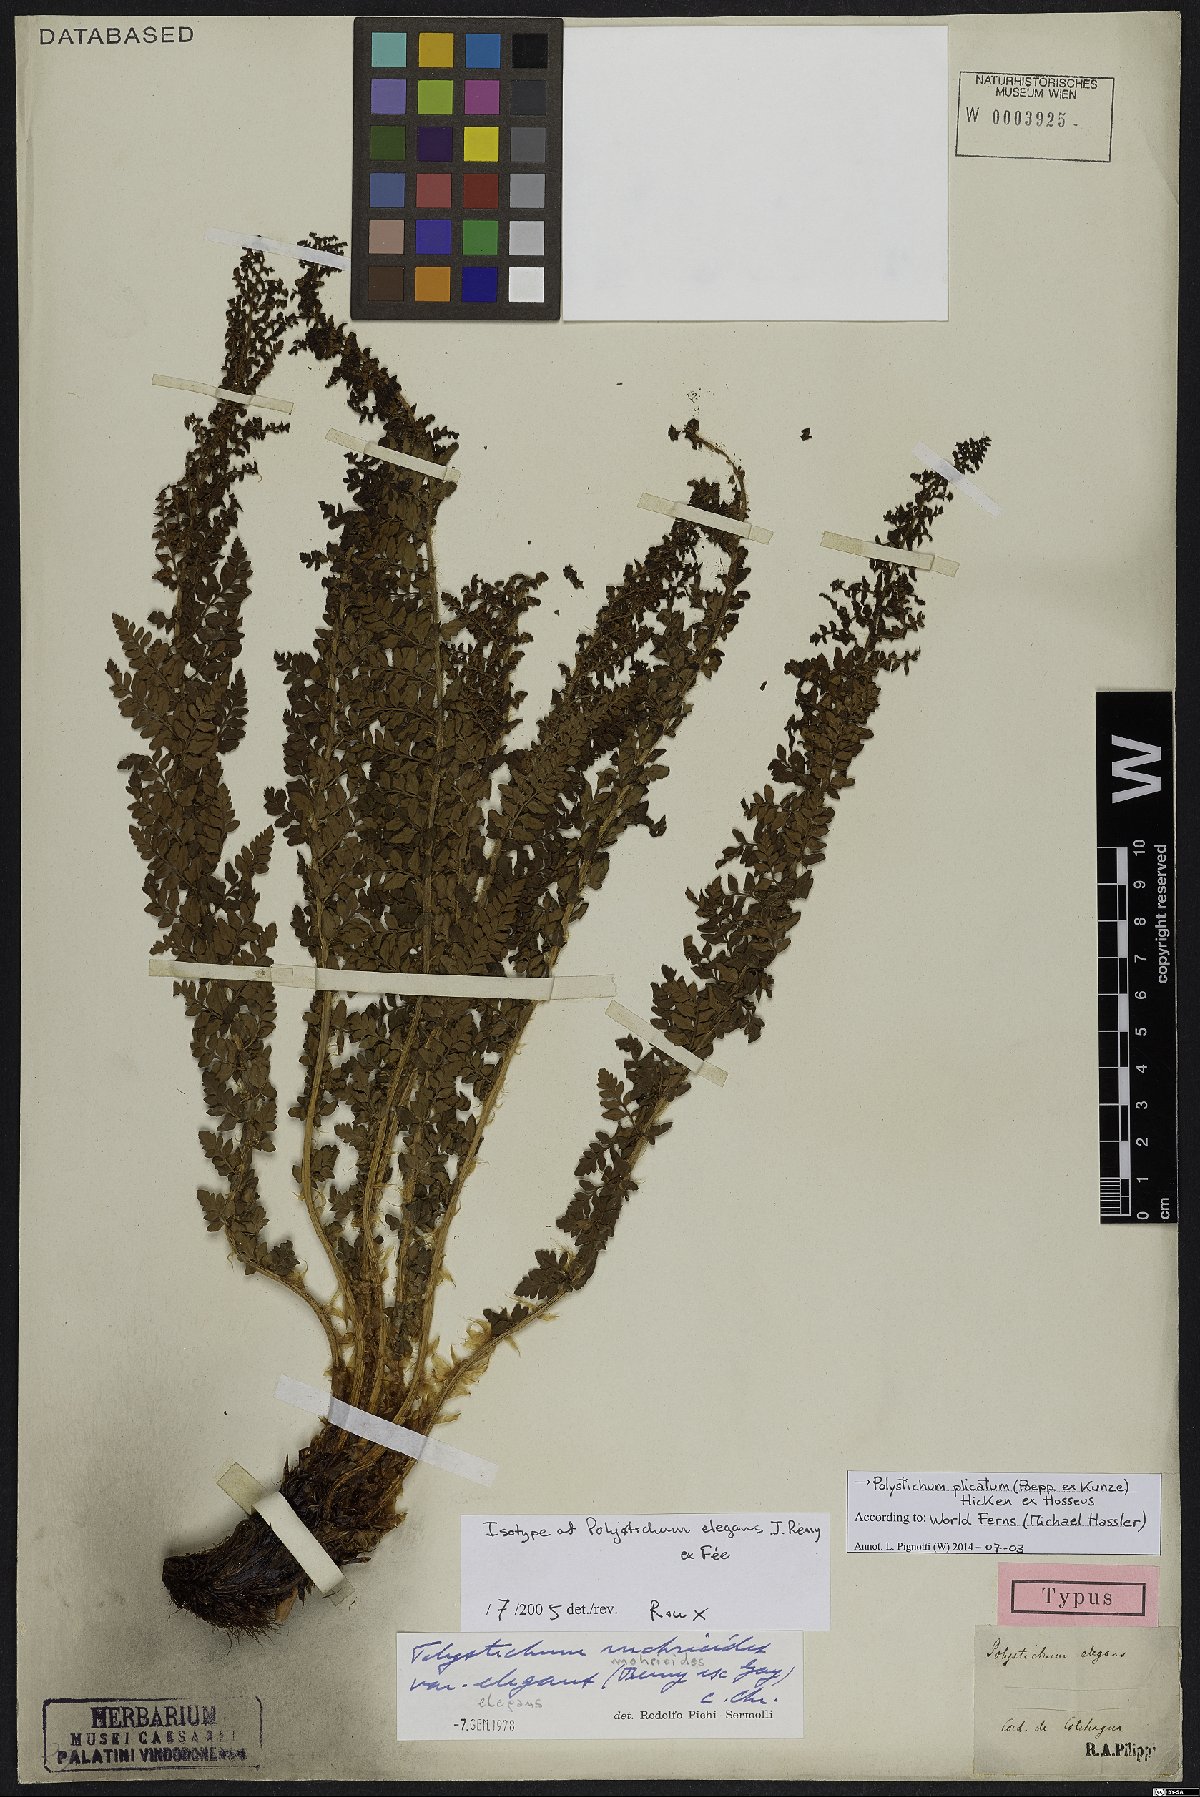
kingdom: Plantae
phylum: Tracheophyta
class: Polypodiopsida
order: Polypodiales
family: Dryopteridaceae
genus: Polystichum
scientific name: Polystichum plicatum
